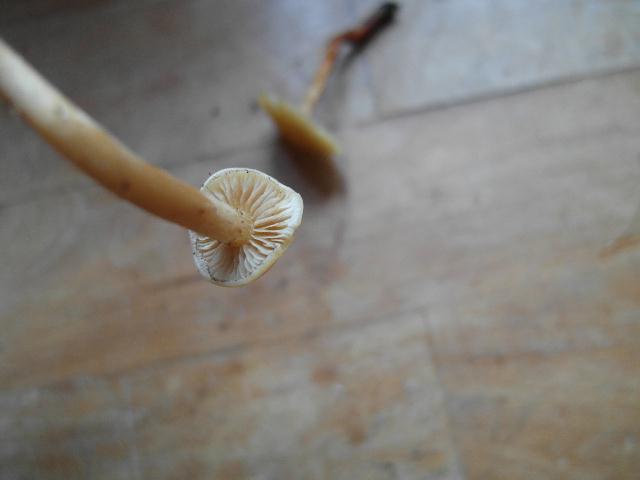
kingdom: Fungi
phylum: Basidiomycota
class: Agaricomycetes
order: Agaricales
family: Physalacriaceae
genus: Flammulina
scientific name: Flammulina velutipes
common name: gul fløjlsfod
